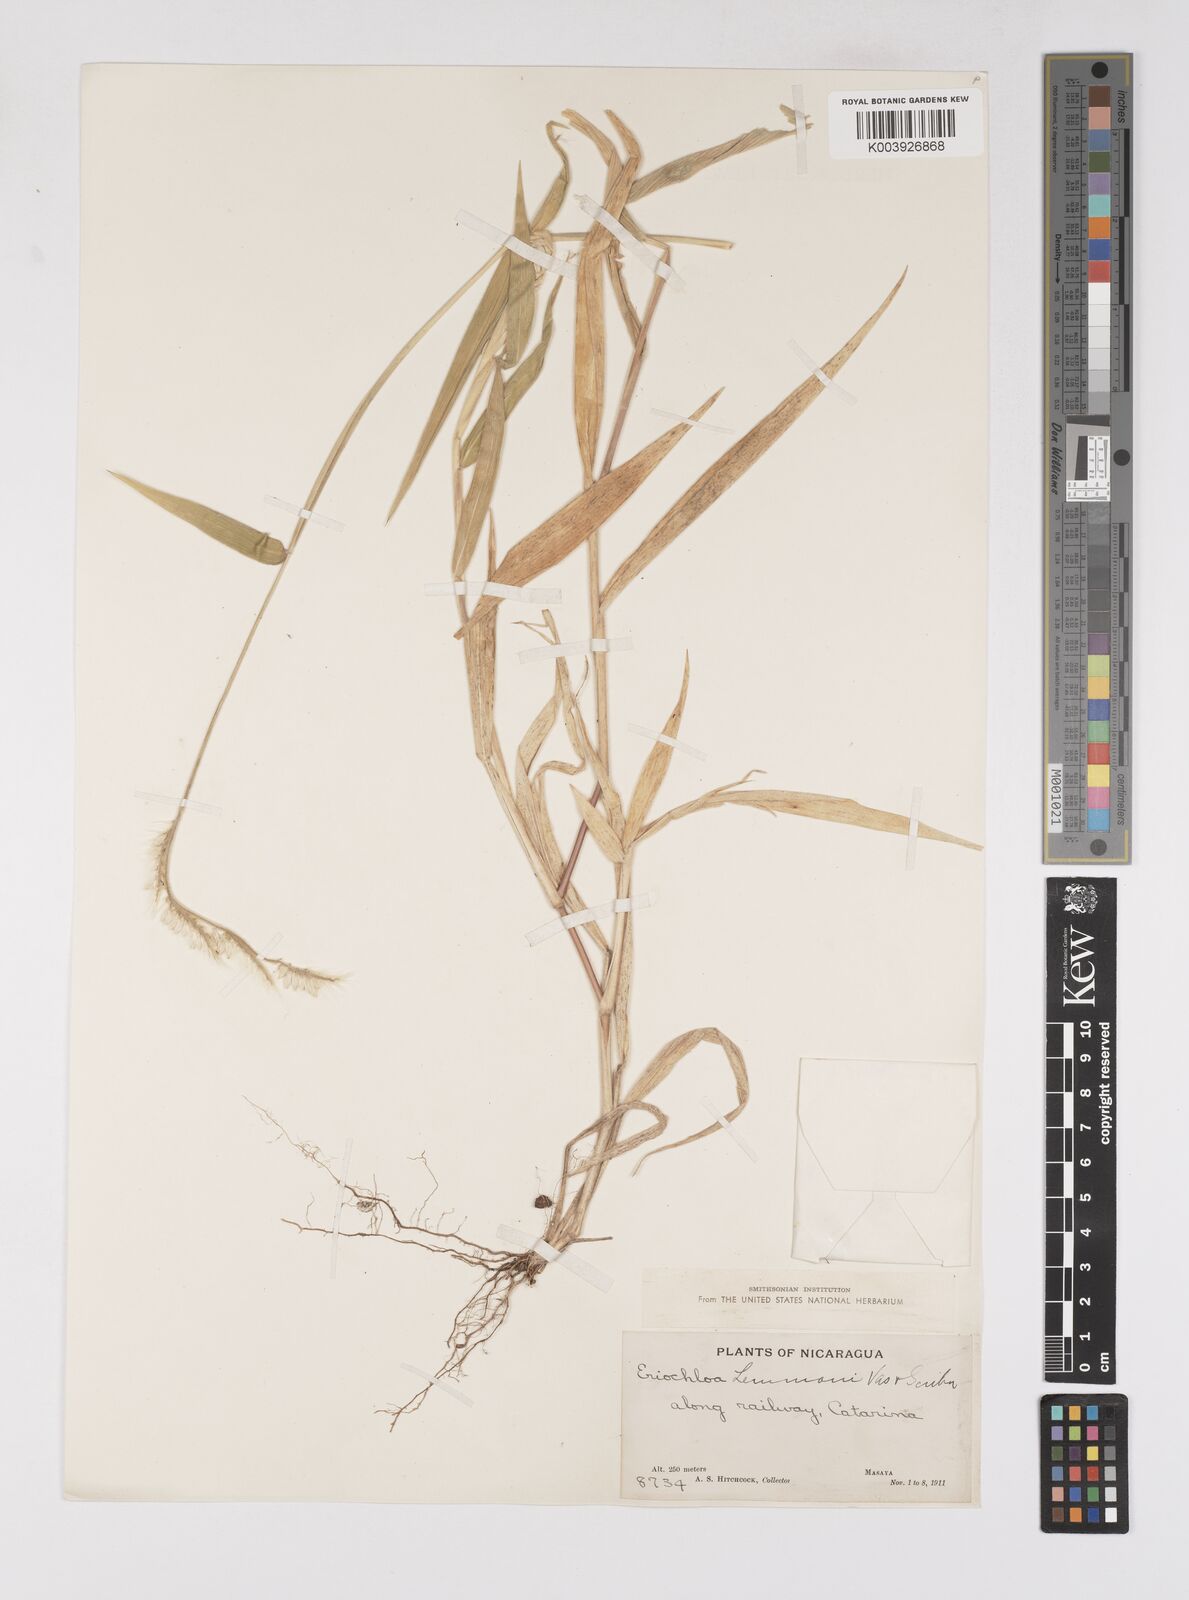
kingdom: Plantae
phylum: Tracheophyta
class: Liliopsida
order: Poales
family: Poaceae
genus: Eriochloa
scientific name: Eriochloa nelsonii
